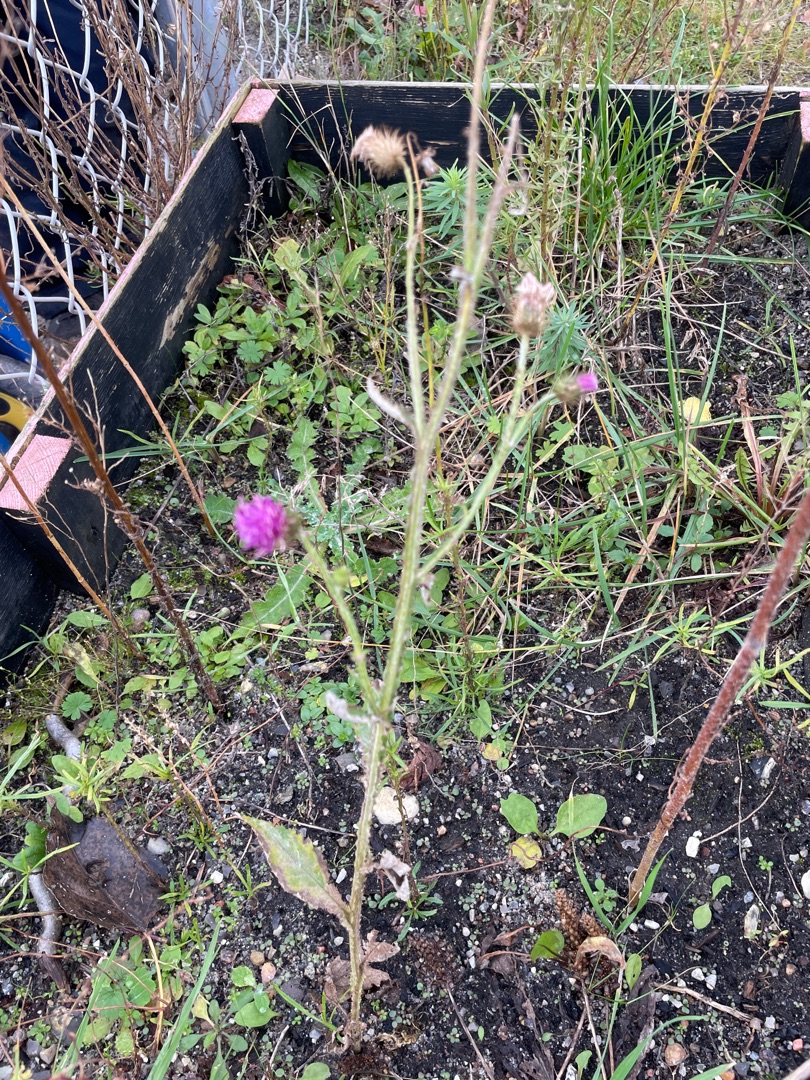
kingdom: Plantae
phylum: Tracheophyta
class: Magnoliopsida
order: Asterales
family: Asteraceae
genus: Carduus
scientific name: Carduus crispus
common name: Kruset tidsel
